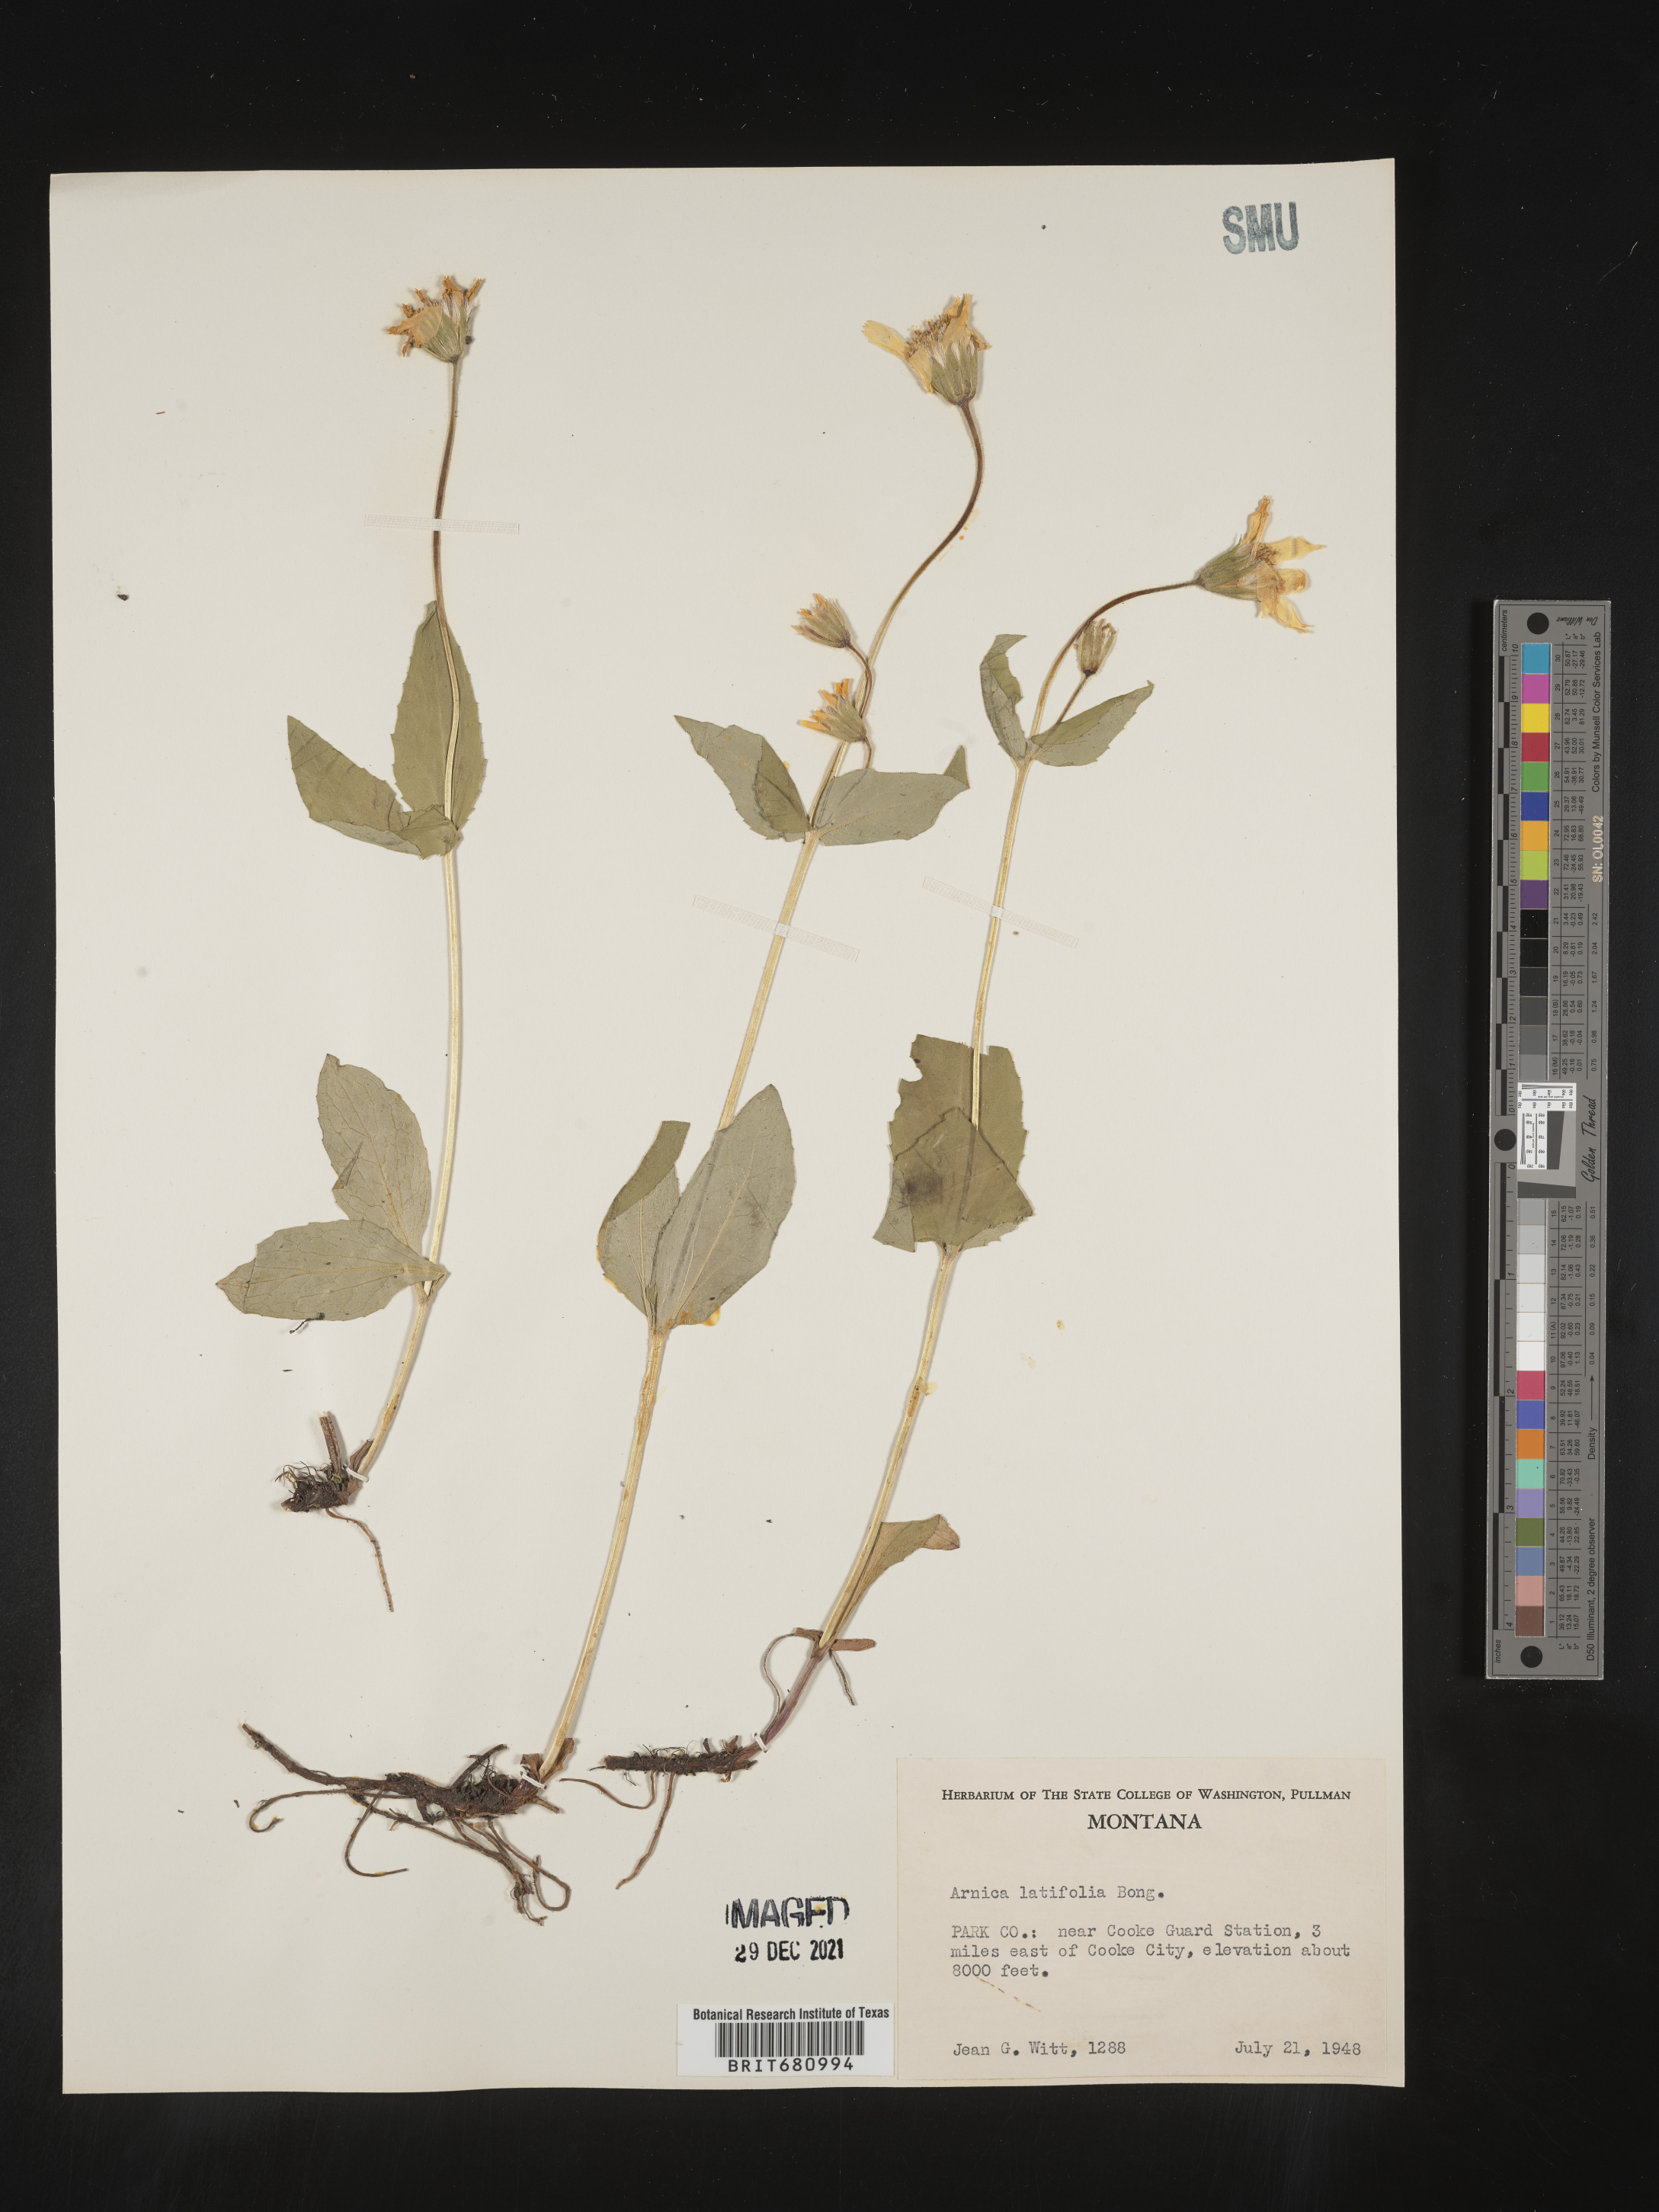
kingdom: Plantae
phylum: Tracheophyta
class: Magnoliopsida
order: Asterales
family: Asteraceae
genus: Arnica
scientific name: Arnica latifolia
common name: Arnica
